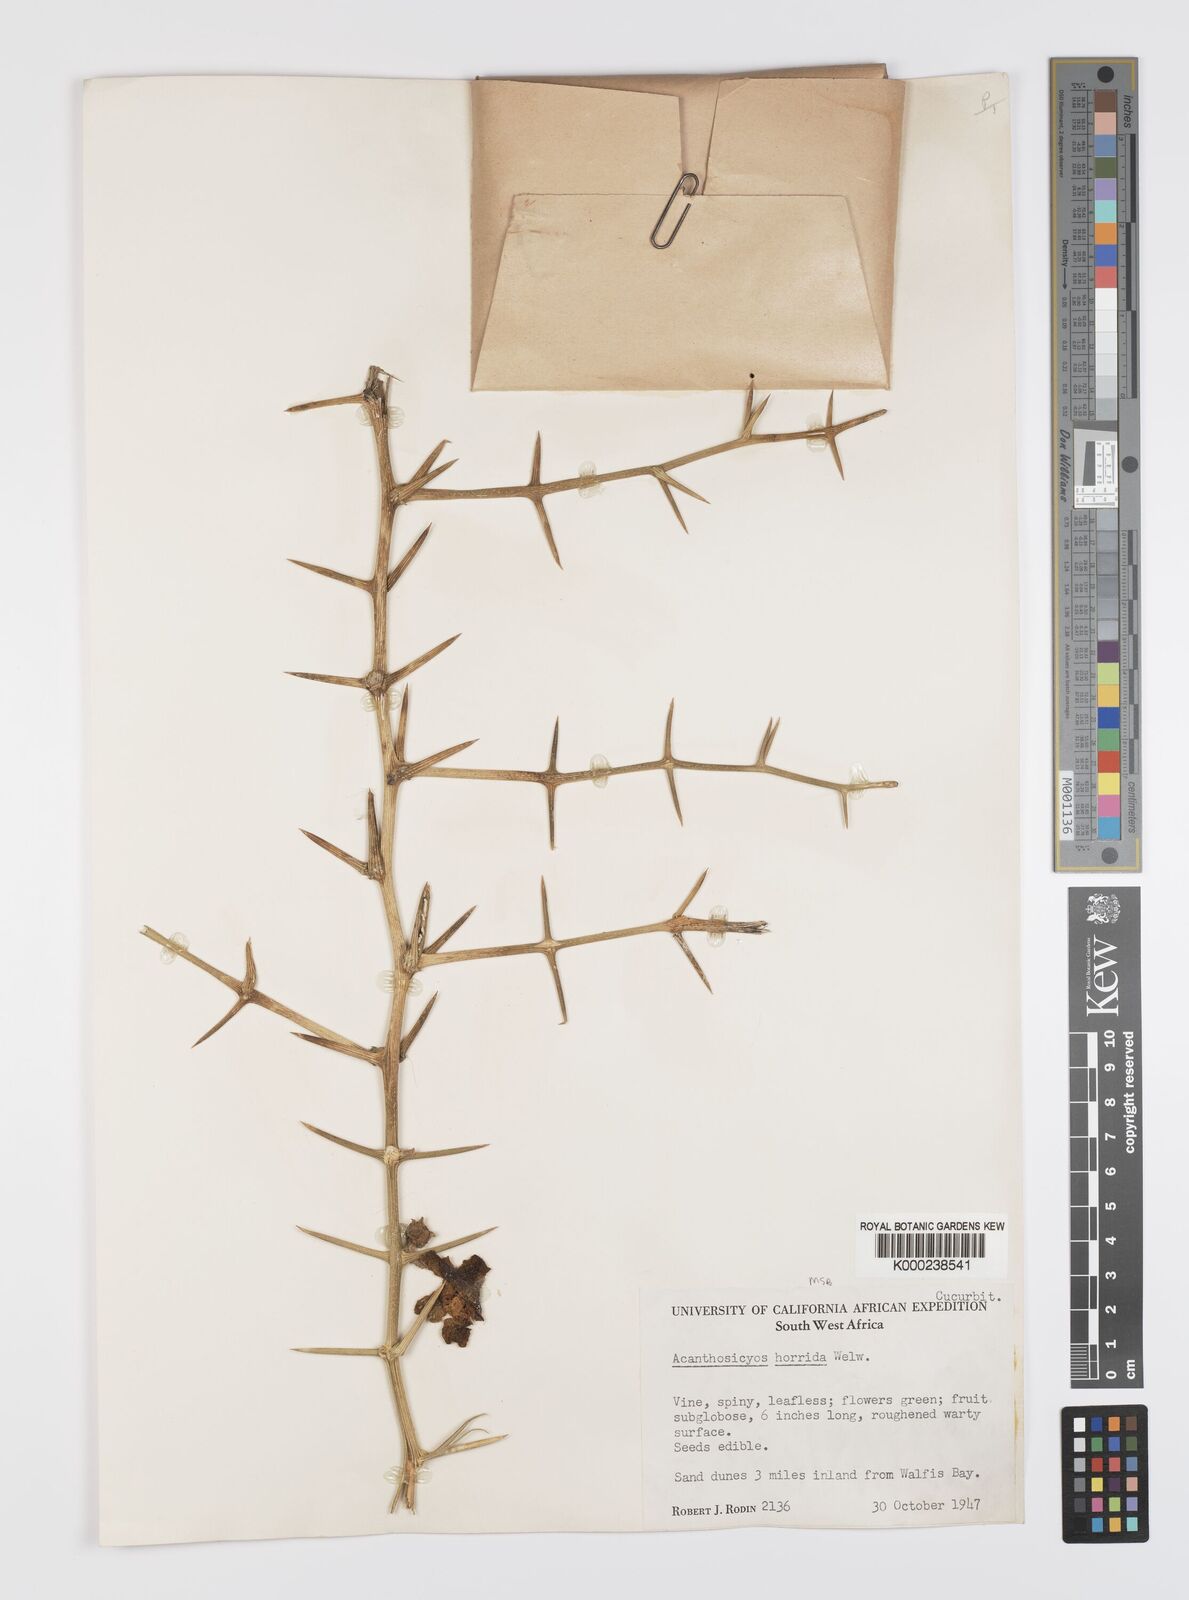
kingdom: Plantae
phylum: Tracheophyta
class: Magnoliopsida
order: Cucurbitales
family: Cucurbitaceae
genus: Acanthosicyos
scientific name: Acanthosicyos horridus
